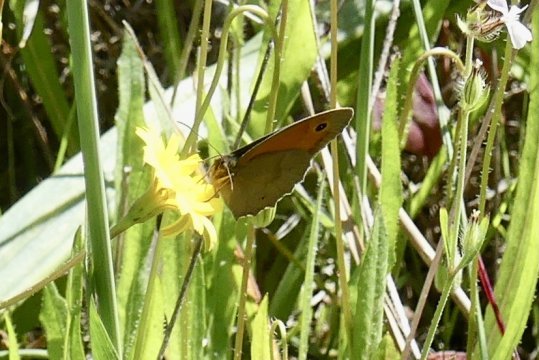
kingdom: Animalia
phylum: Arthropoda
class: Insecta
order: Lepidoptera
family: Nymphalidae
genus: Maniola
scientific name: Maniola jurtina
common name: Meadow Brown
